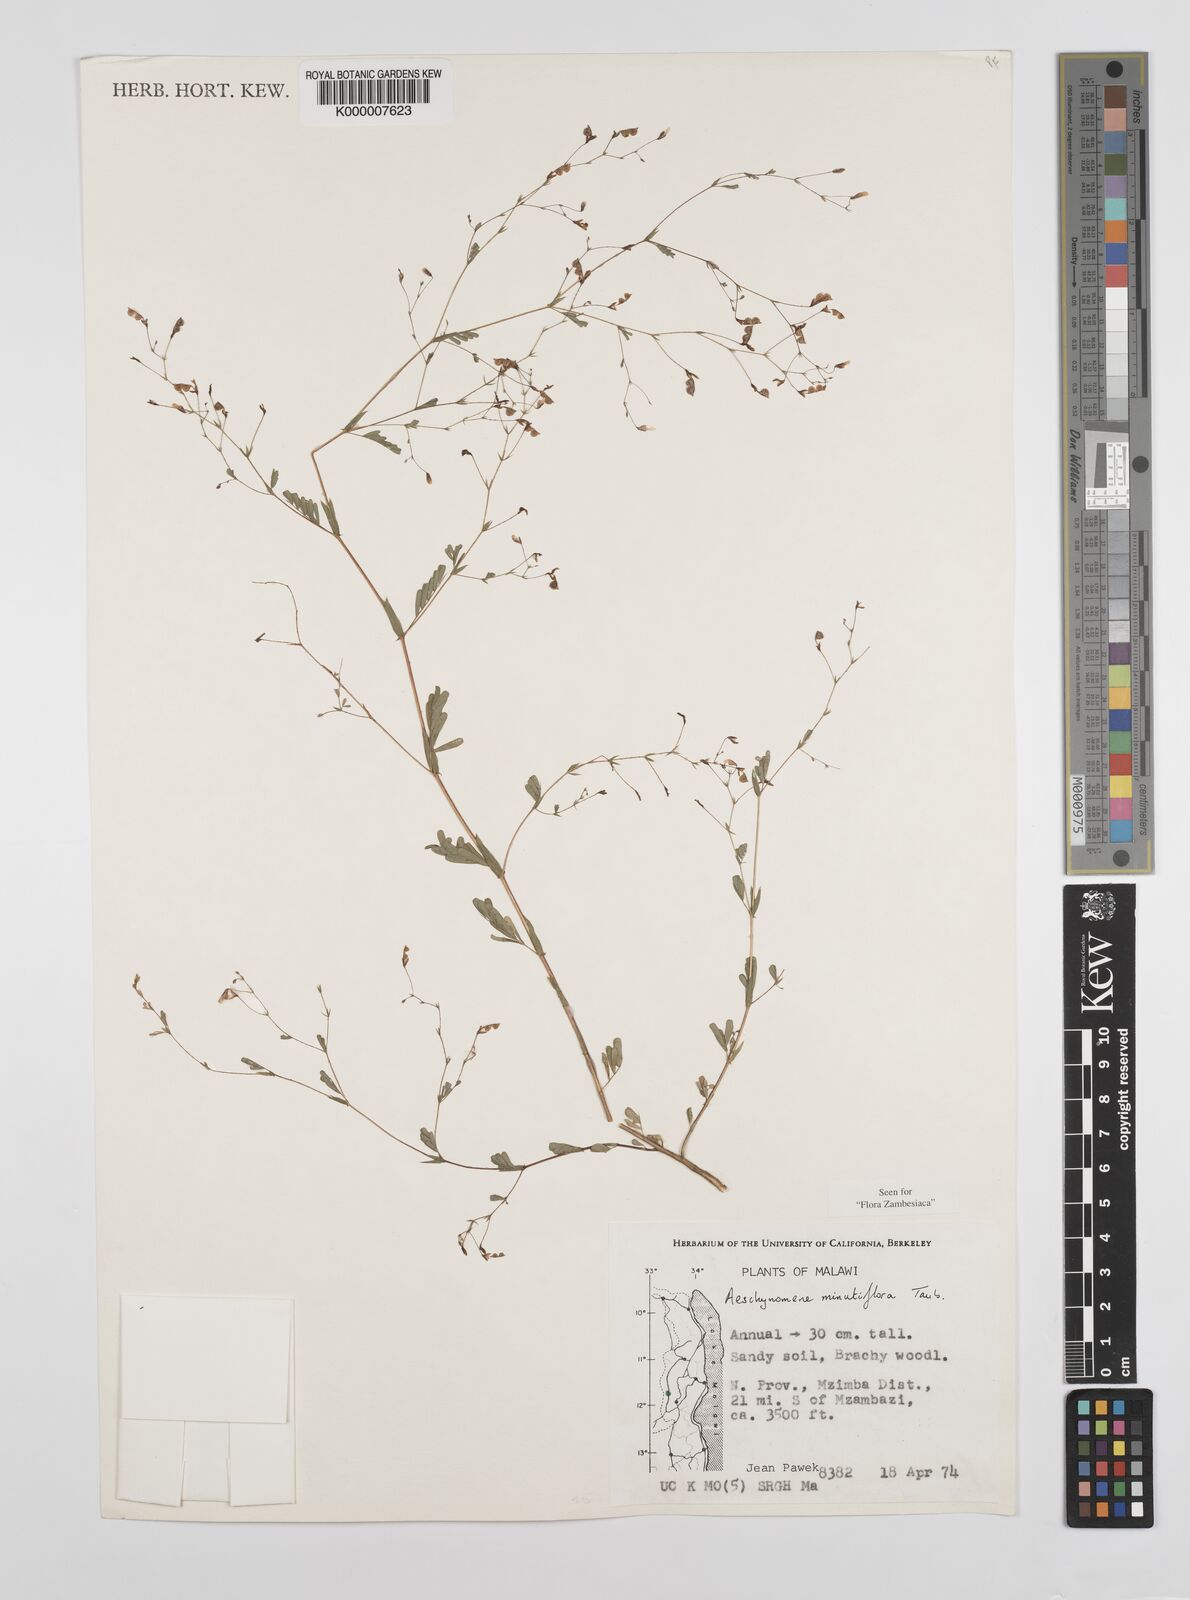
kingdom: Plantae
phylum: Tracheophyta
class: Magnoliopsida
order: Fabales
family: Fabaceae
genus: Aeschynomene
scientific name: Aeschynomene minutiflora
